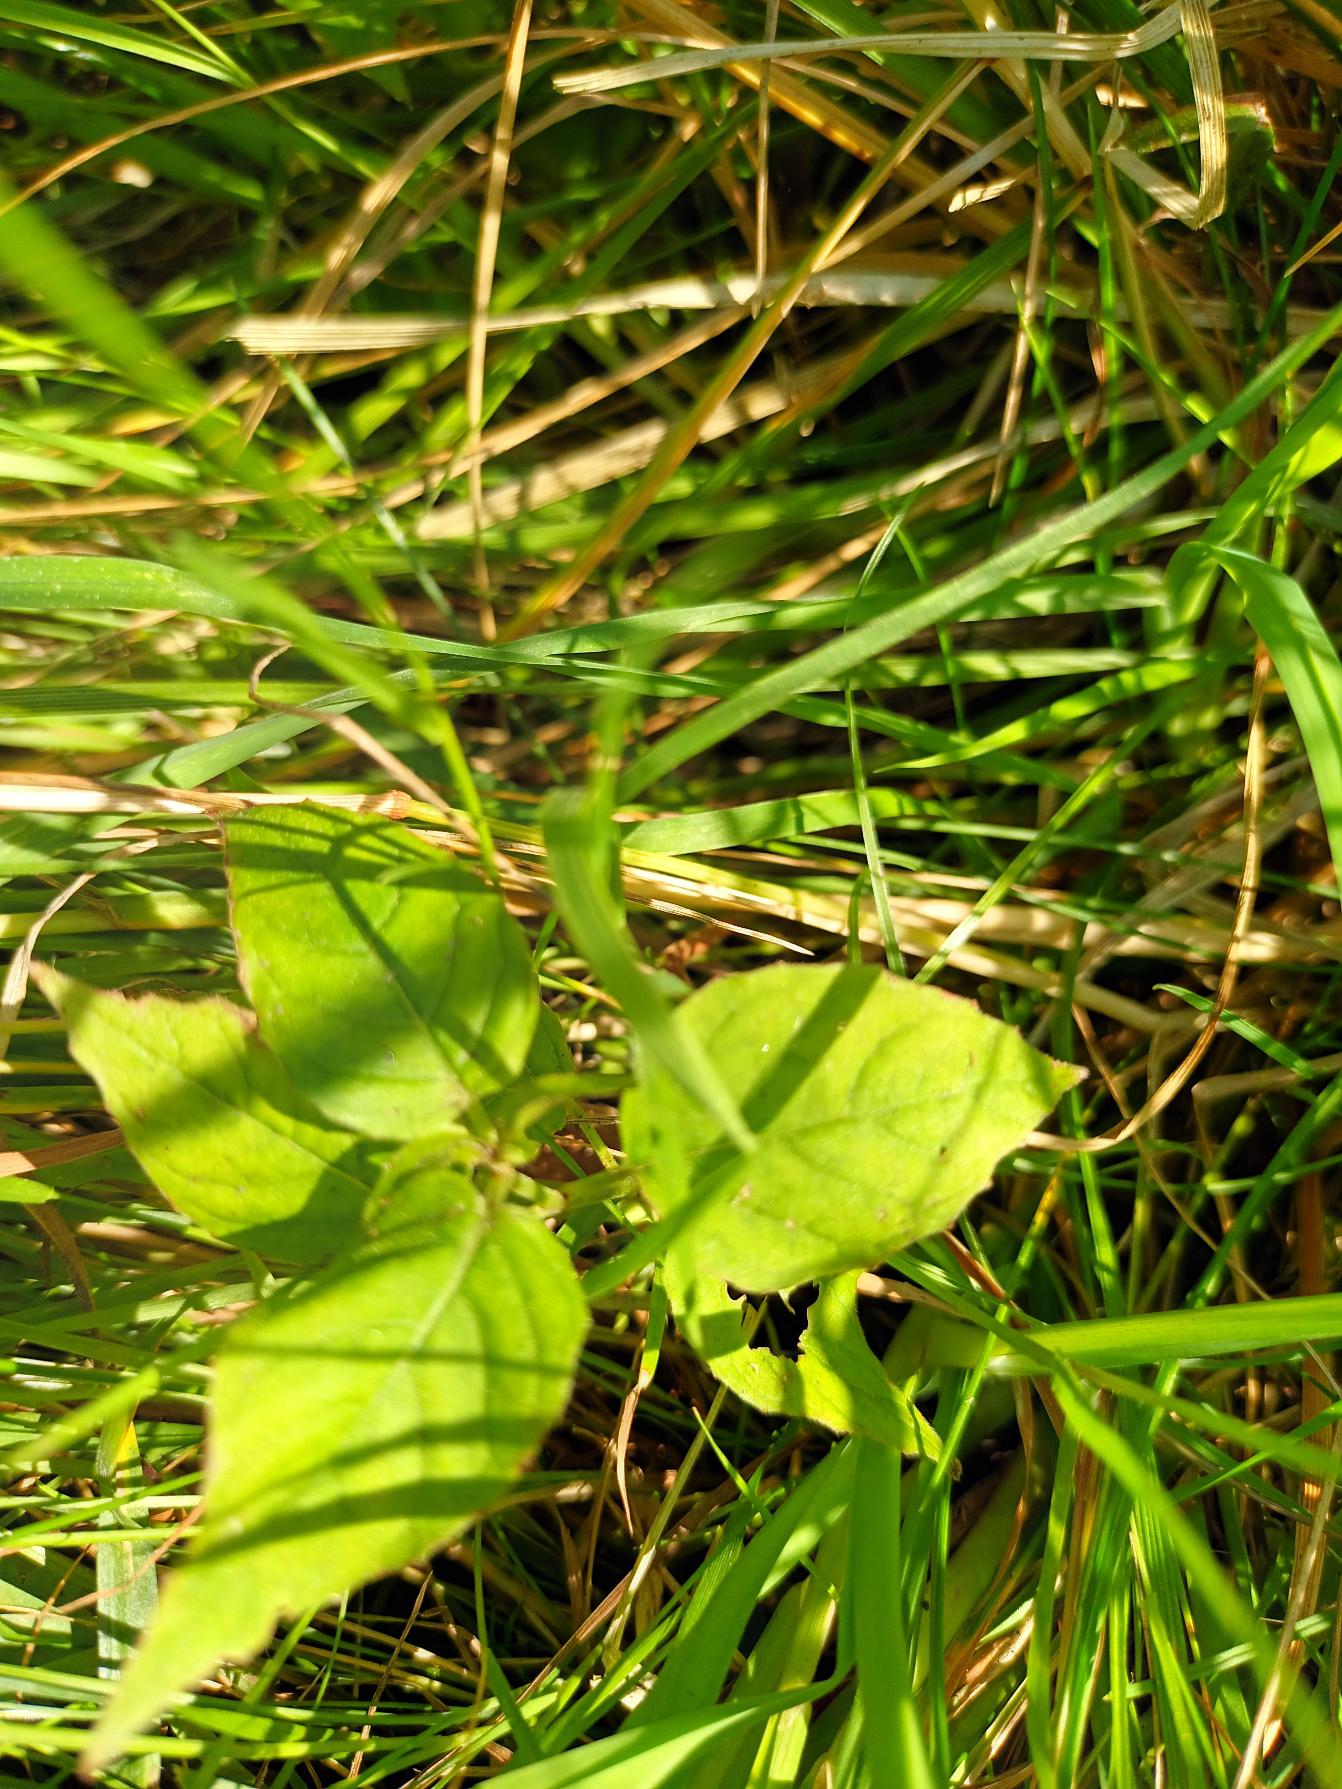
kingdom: Plantae
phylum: Tracheophyta
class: Magnoliopsida
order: Myrtales
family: Onagraceae
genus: Circaea
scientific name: Circaea lutetiana
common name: Dunet steffensurt
